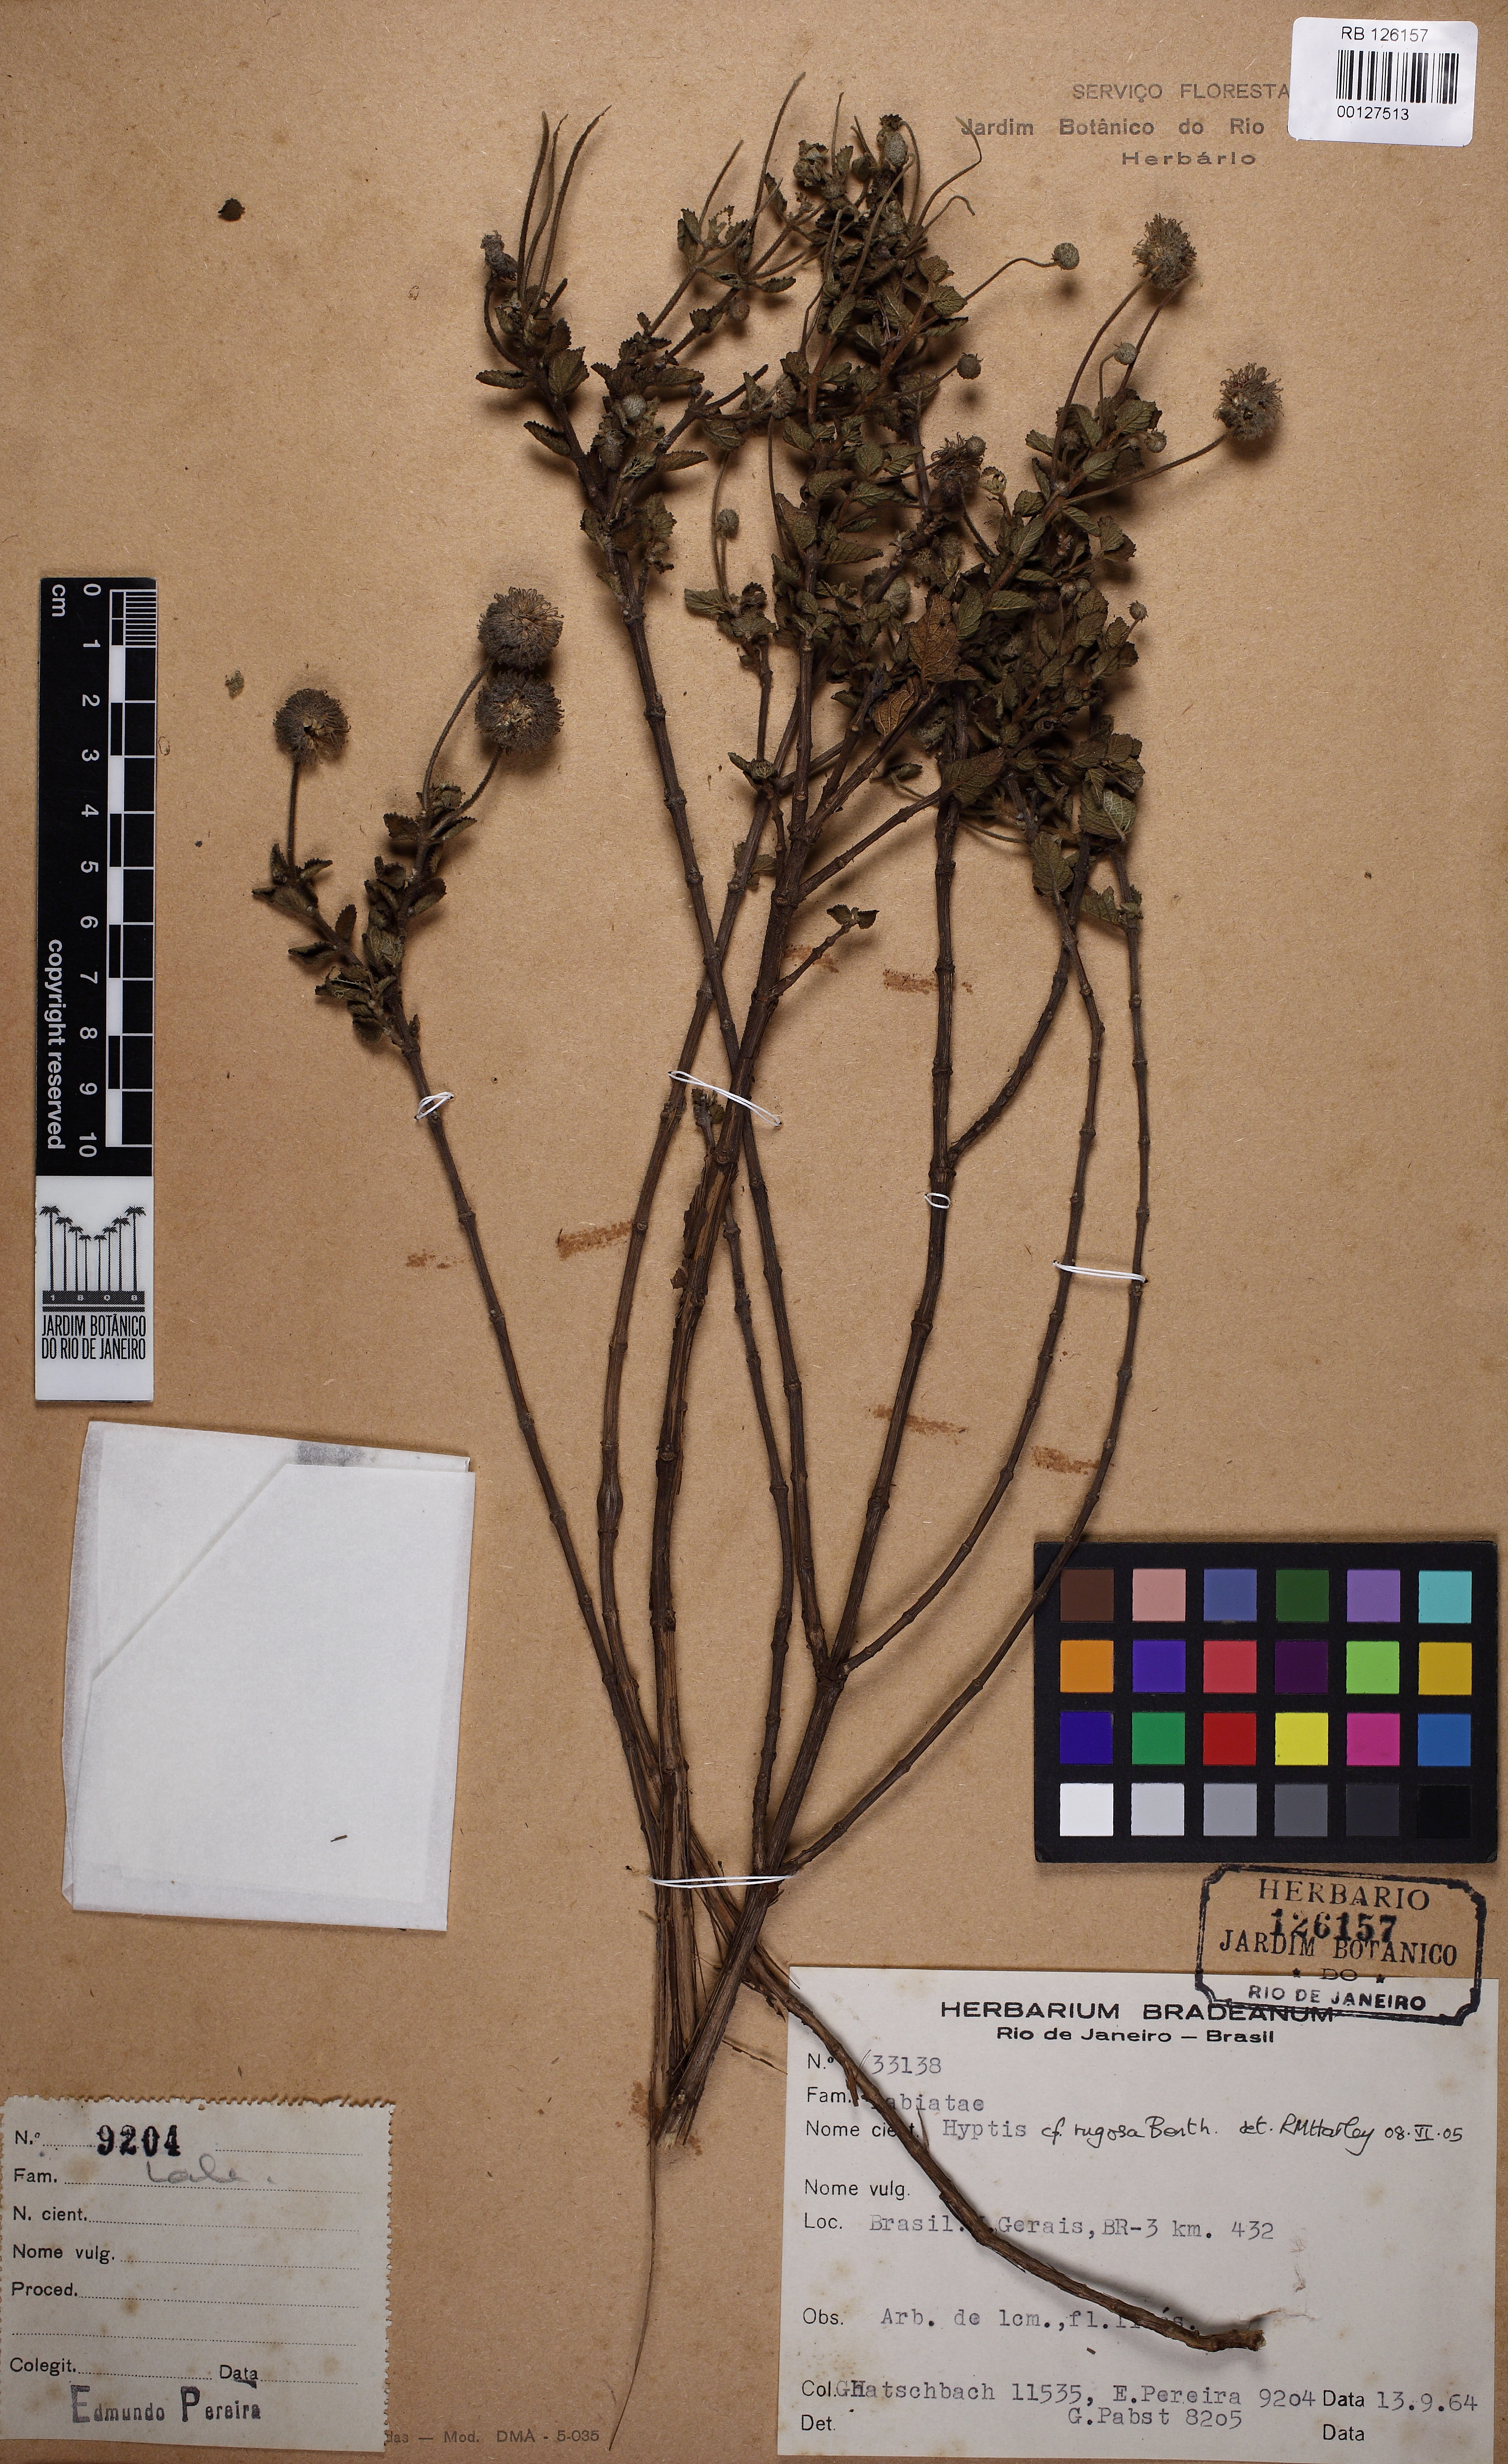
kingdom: Plantae
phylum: Tracheophyta
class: Magnoliopsida
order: Lamiales
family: Lamiaceae
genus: Cyanocephalus
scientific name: Cyanocephalus rugosus
